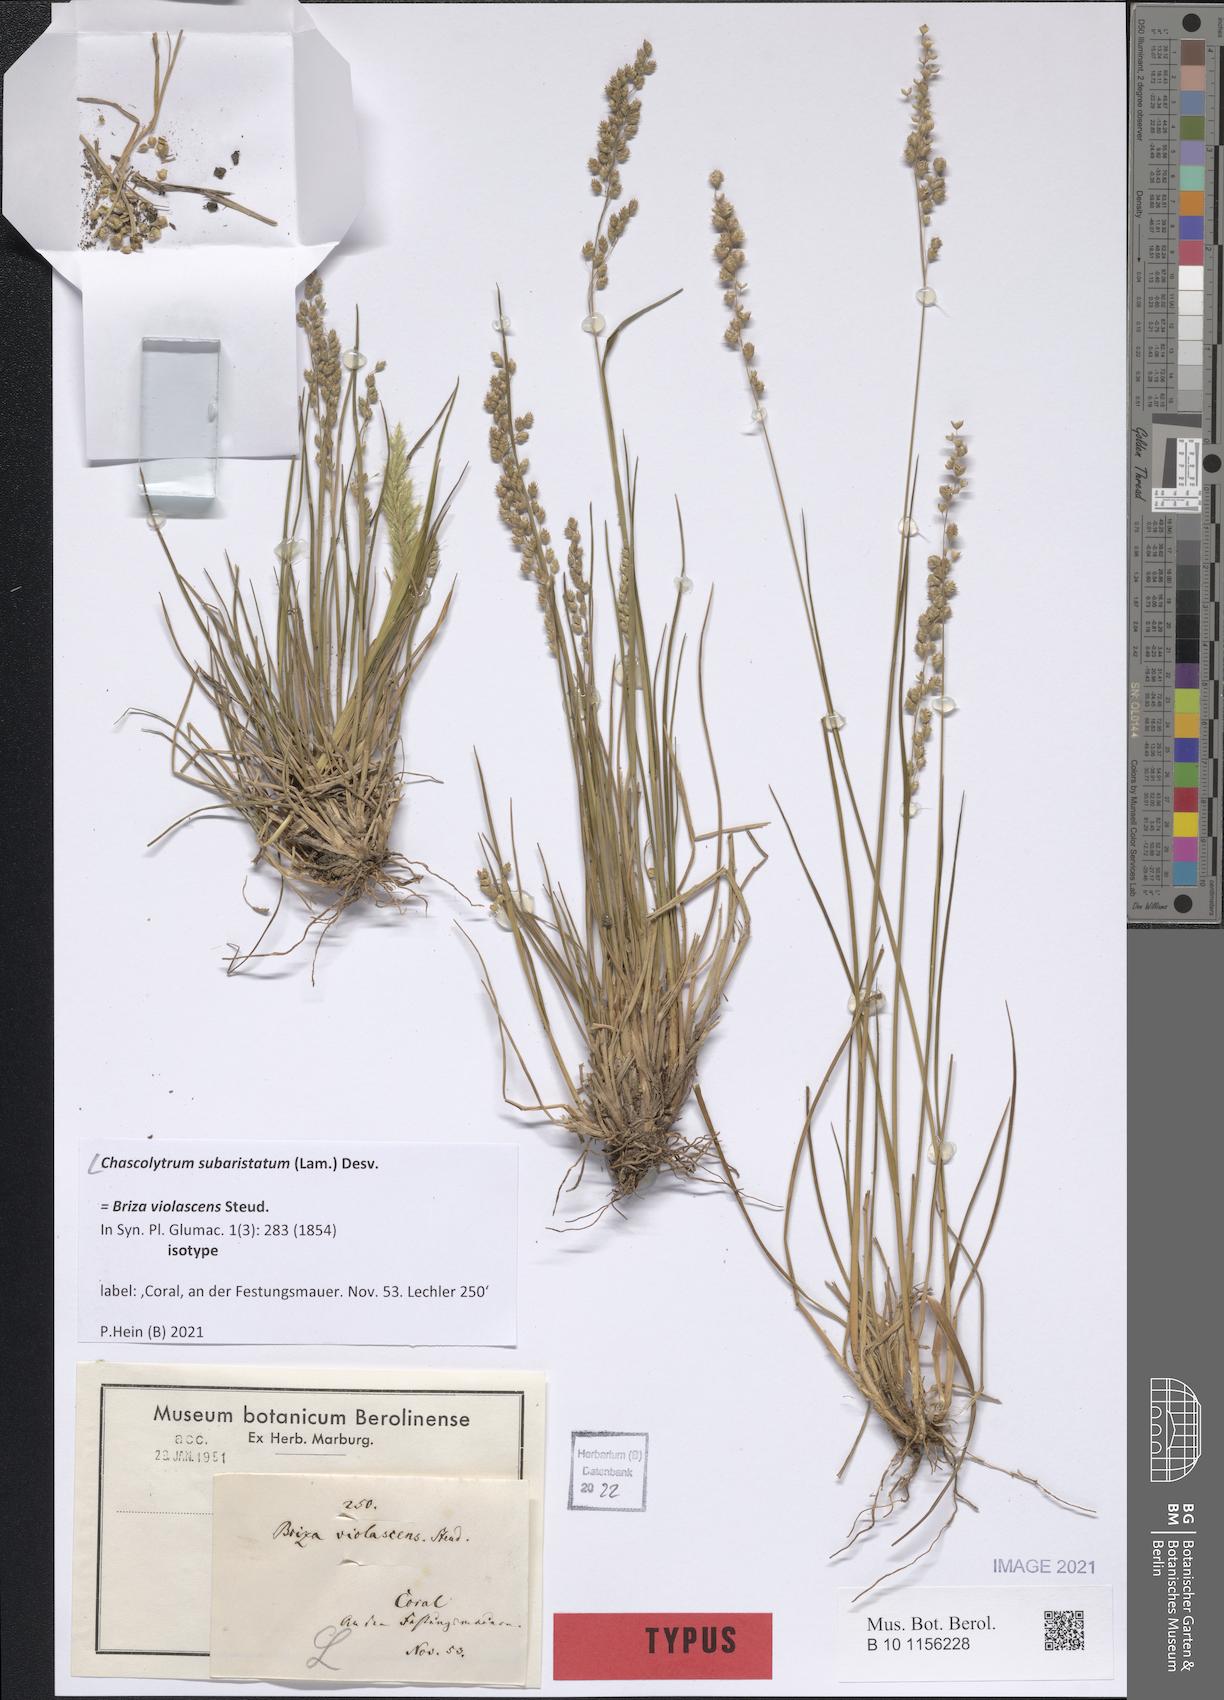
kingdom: Plantae
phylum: Tracheophyta
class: Liliopsida
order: Poales
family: Poaceae
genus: Chascolytrum
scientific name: Chascolytrum subaristatum
